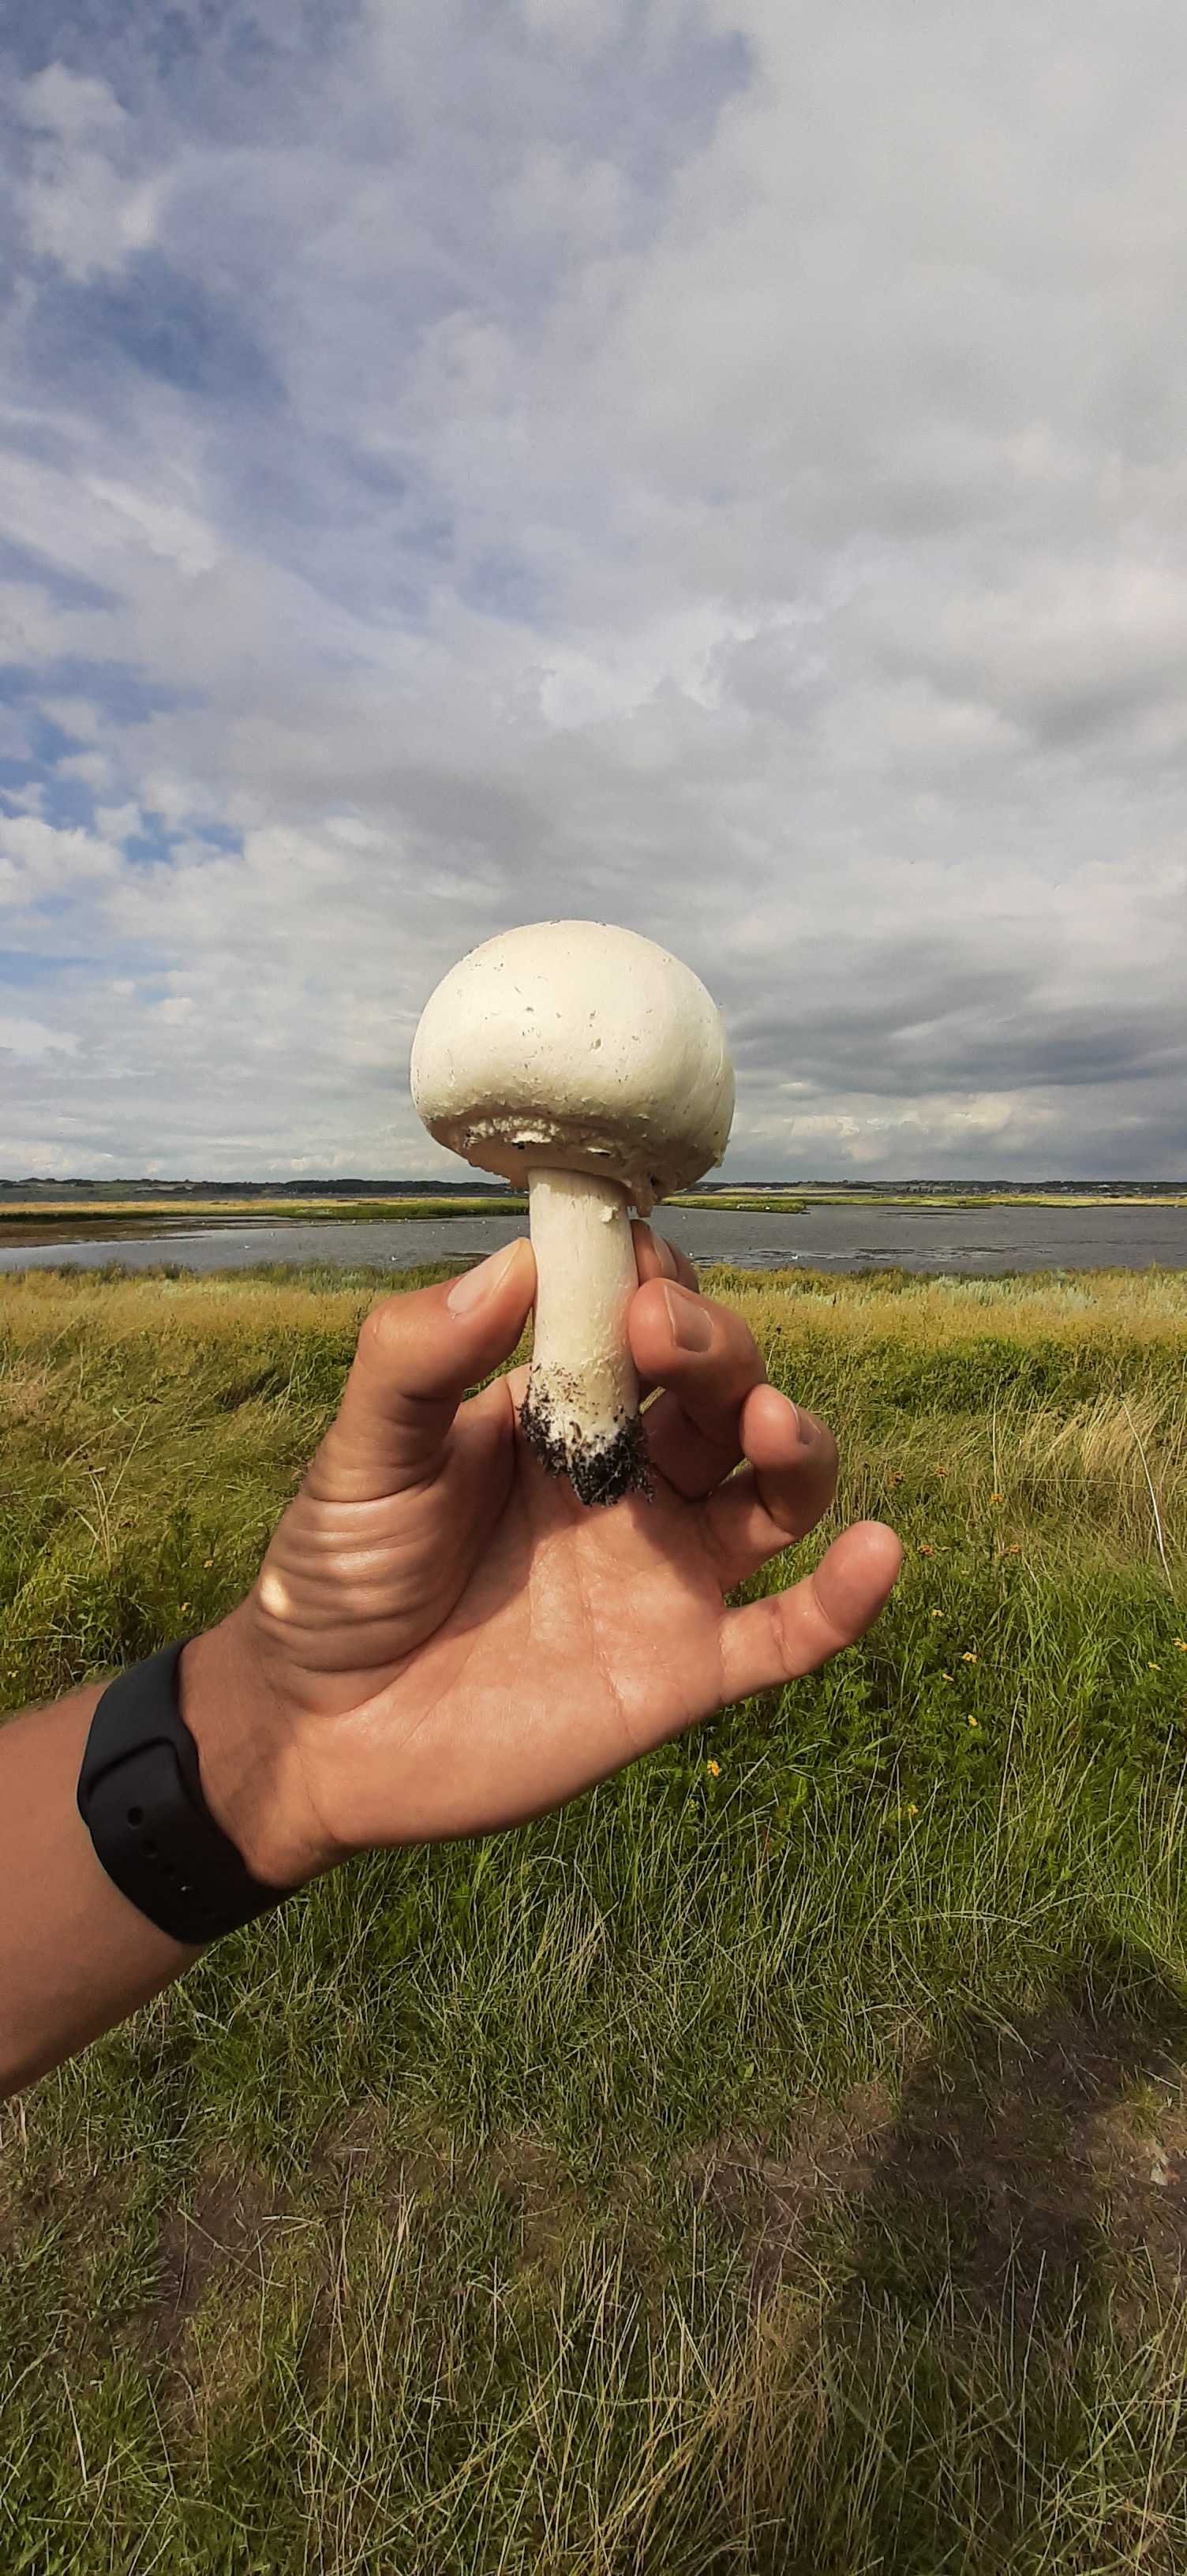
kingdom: Fungi
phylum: Basidiomycota
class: Agaricomycetes
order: Agaricales
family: Agaricaceae
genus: Agaricus
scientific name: Agaricus
